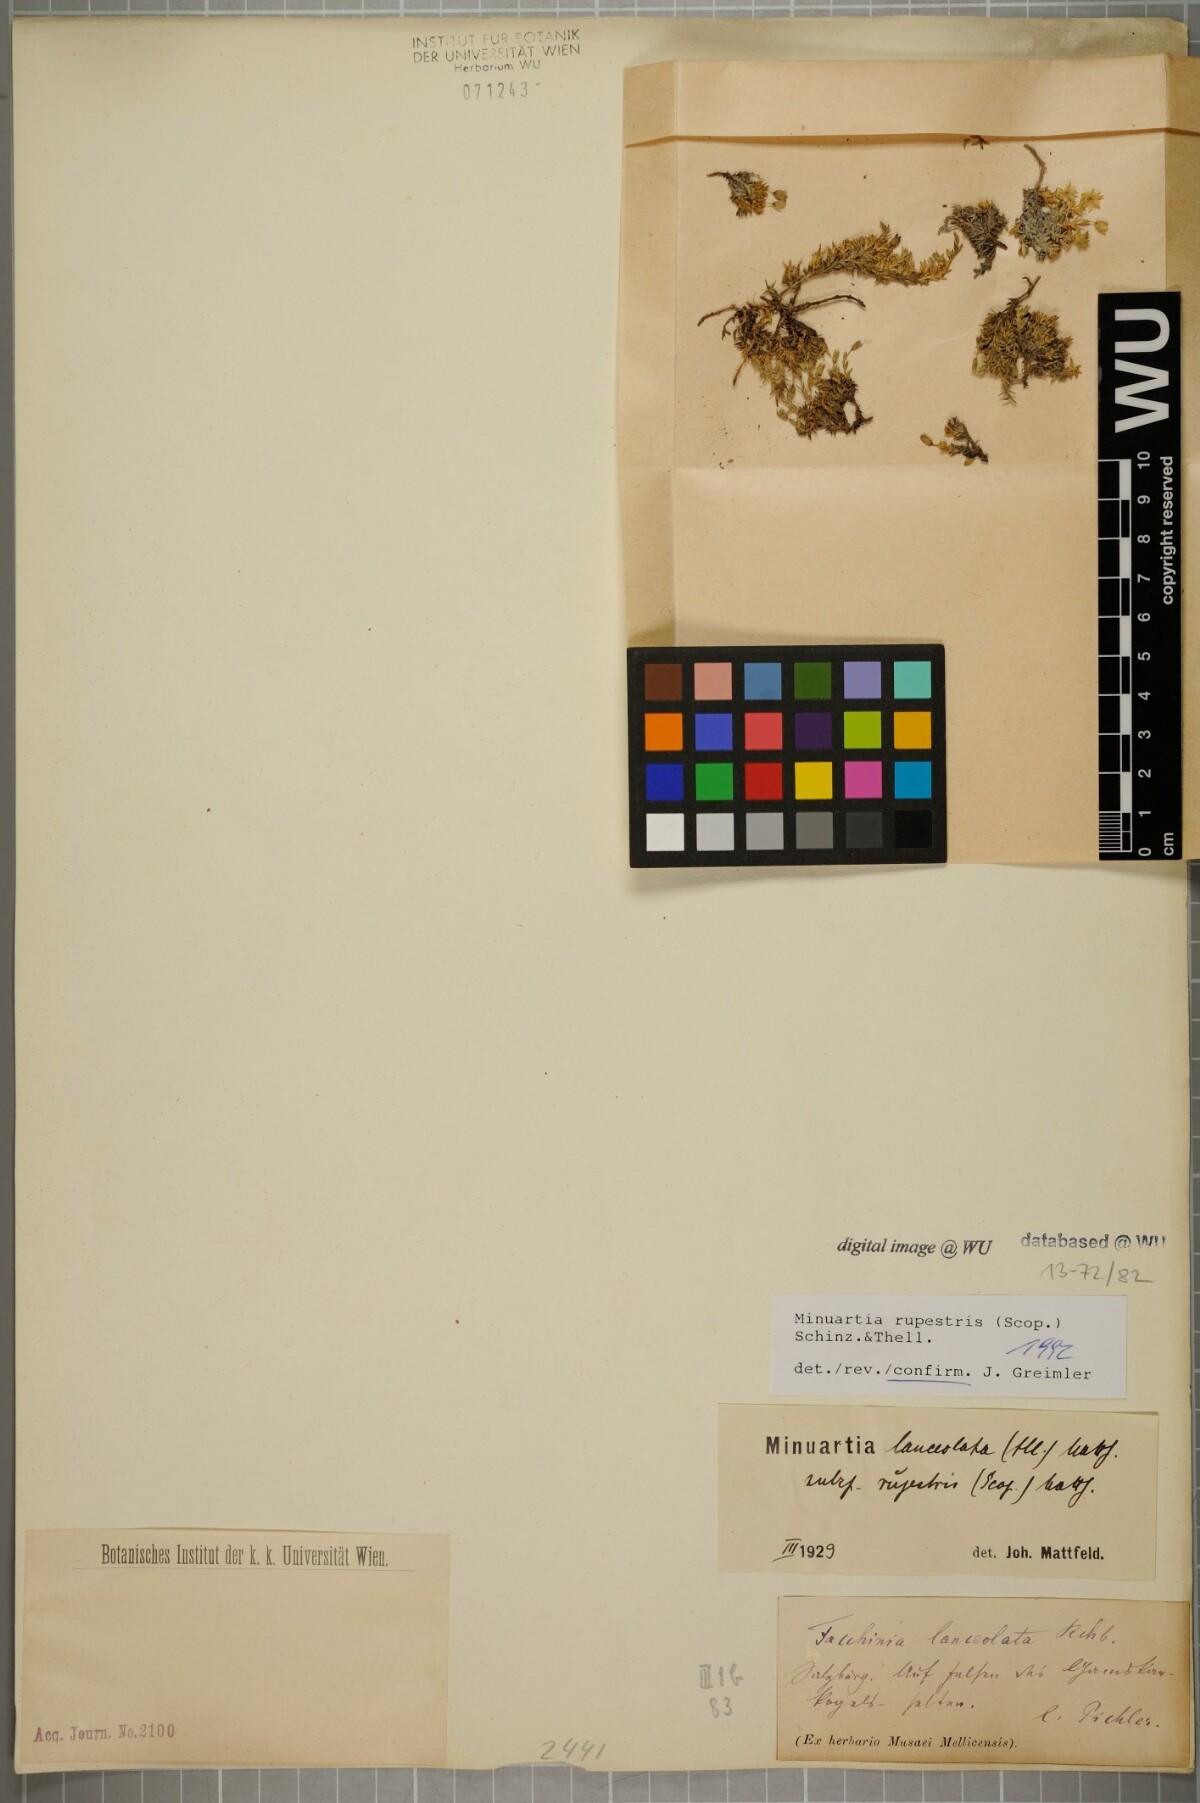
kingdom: Plantae
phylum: Tracheophyta
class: Magnoliopsida
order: Caryophyllales
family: Caryophyllaceae
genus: Facchinia
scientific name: Facchinia rupestris
